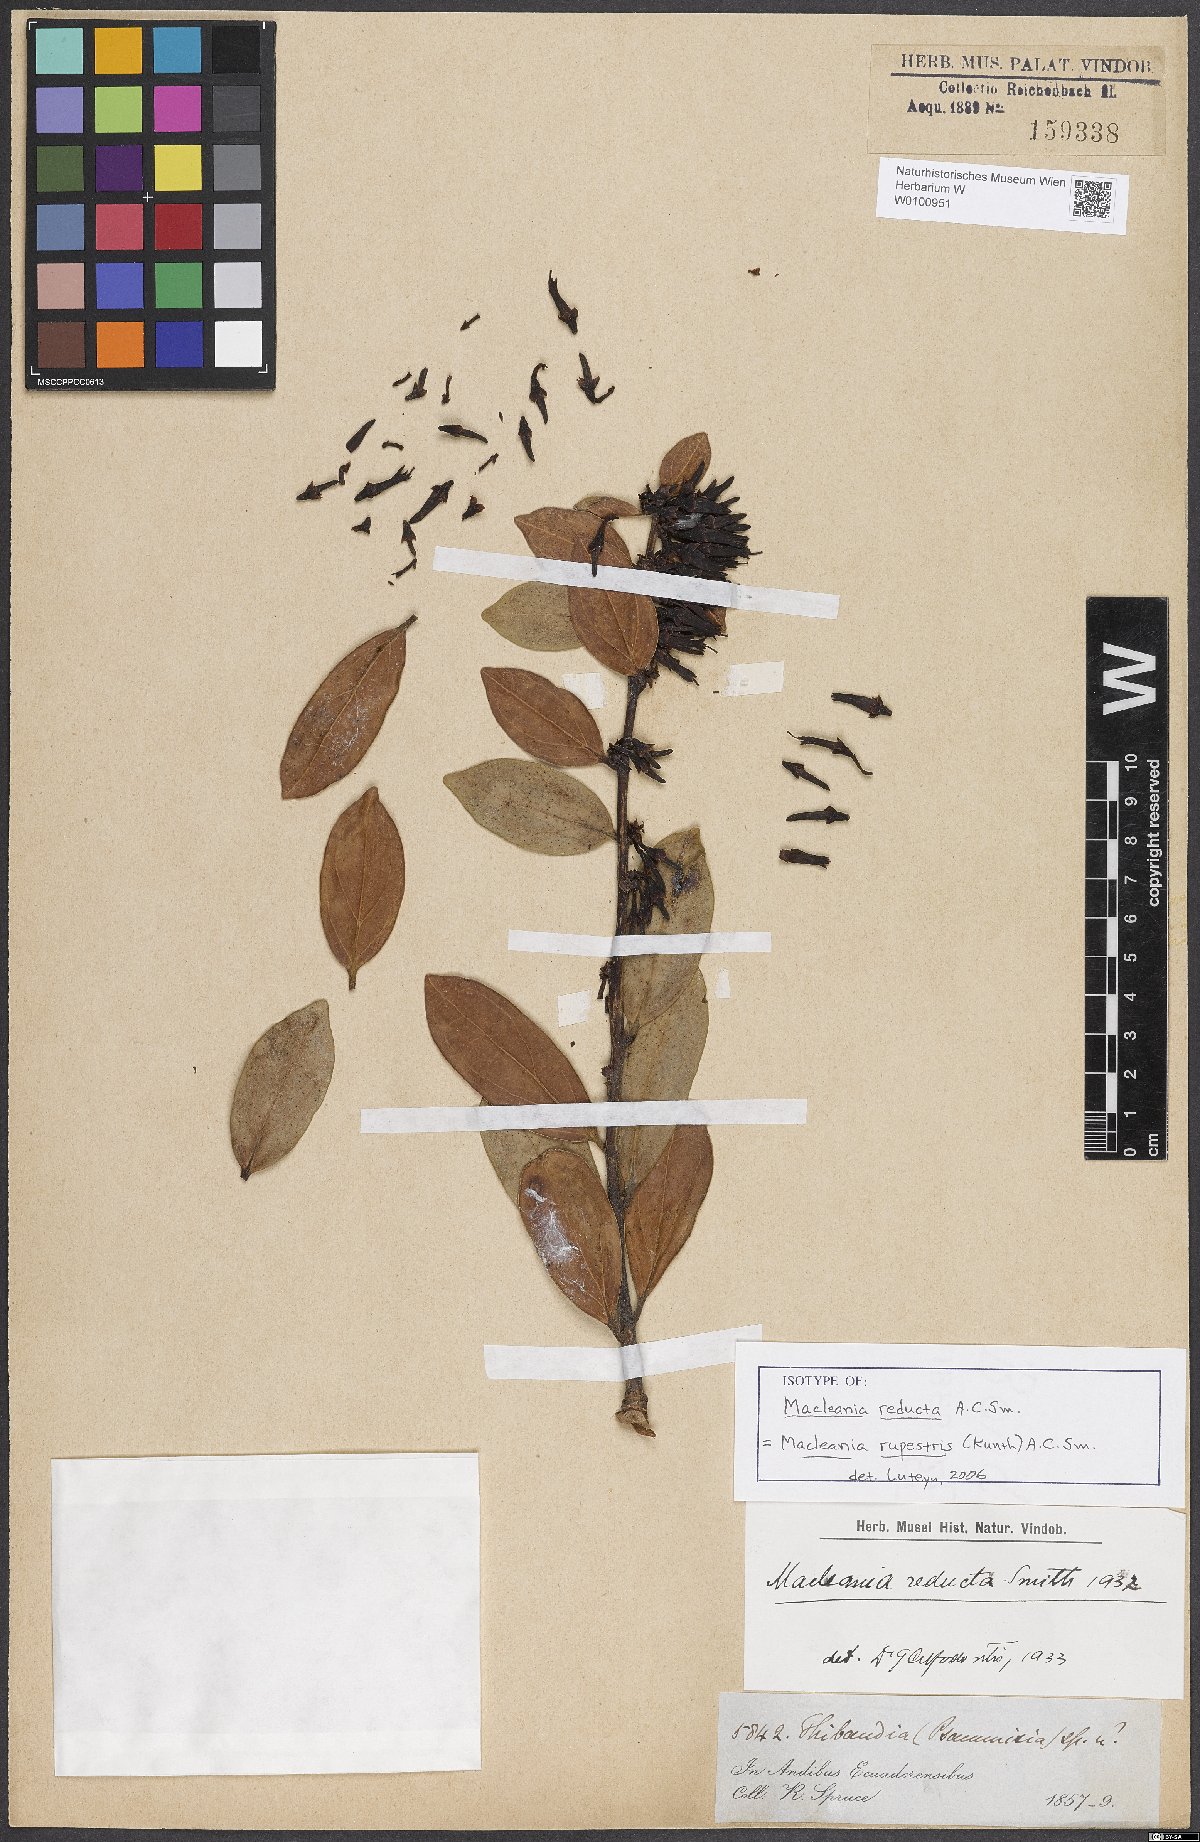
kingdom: Plantae
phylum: Tracheophyta
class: Magnoliopsida
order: Ericales
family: Ericaceae
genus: Macleania
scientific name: Macleania rupestris
